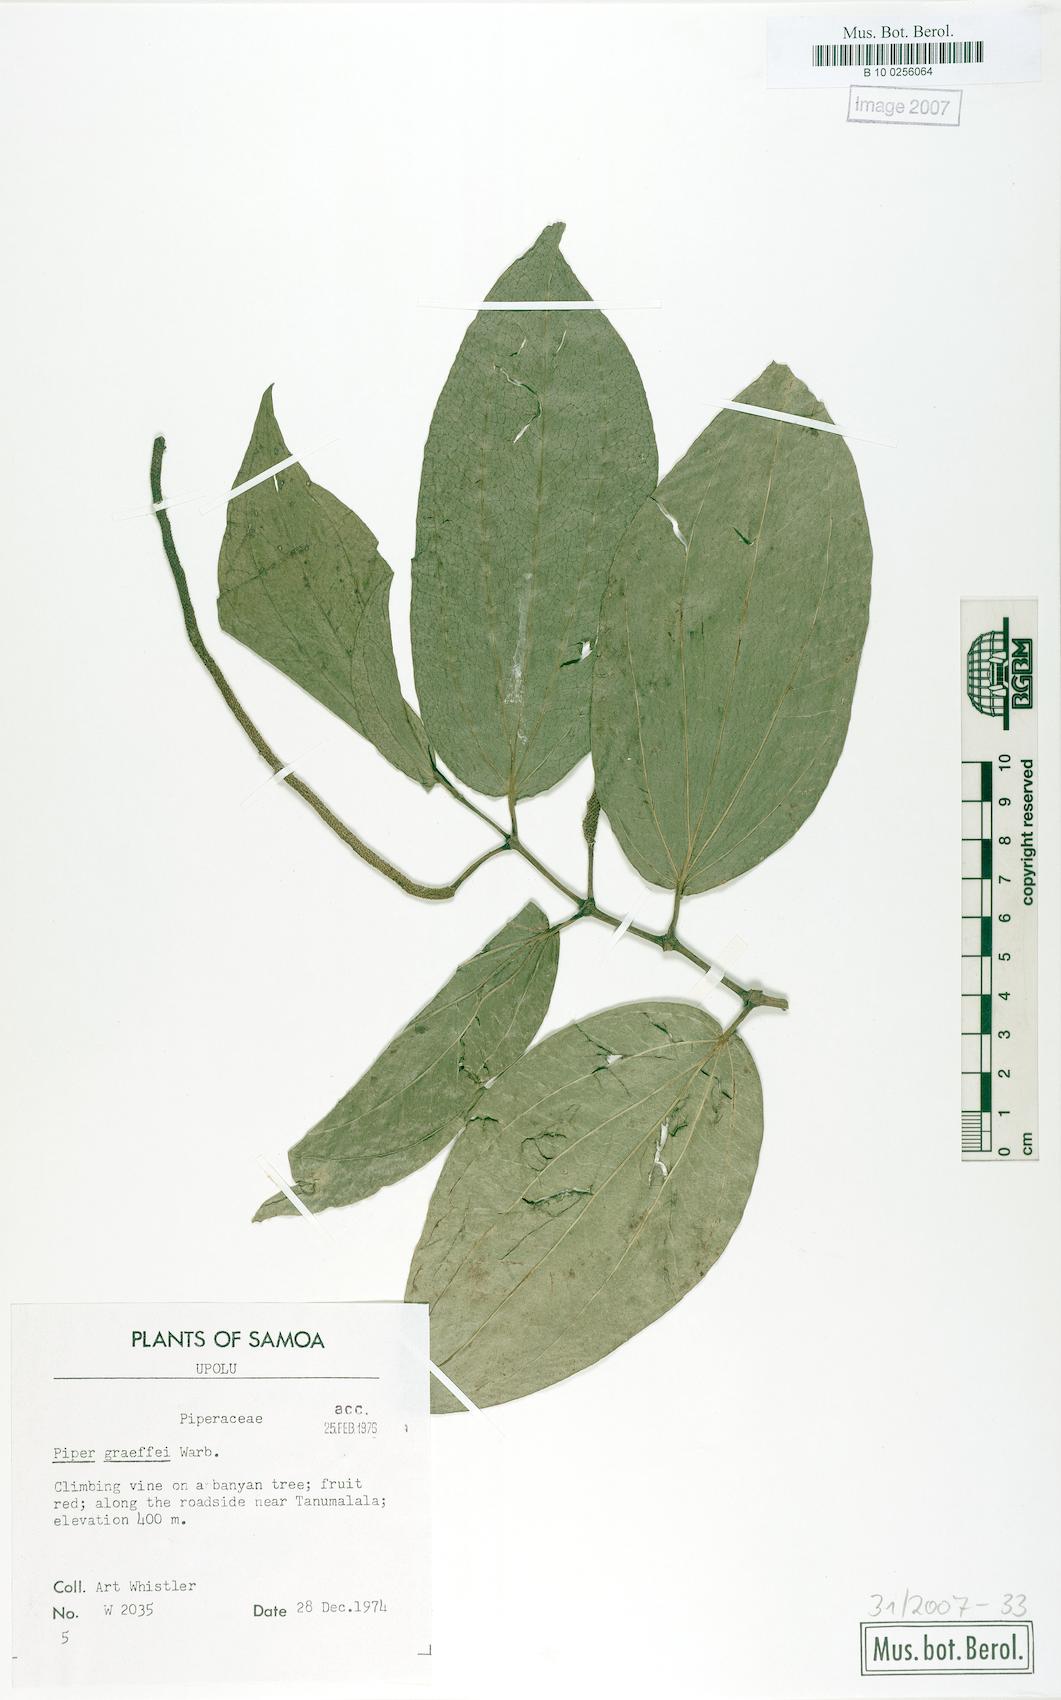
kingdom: Plantae
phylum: Tracheophyta
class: Magnoliopsida
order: Piperales
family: Piperaceae
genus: Piper
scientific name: Piper graeffei
